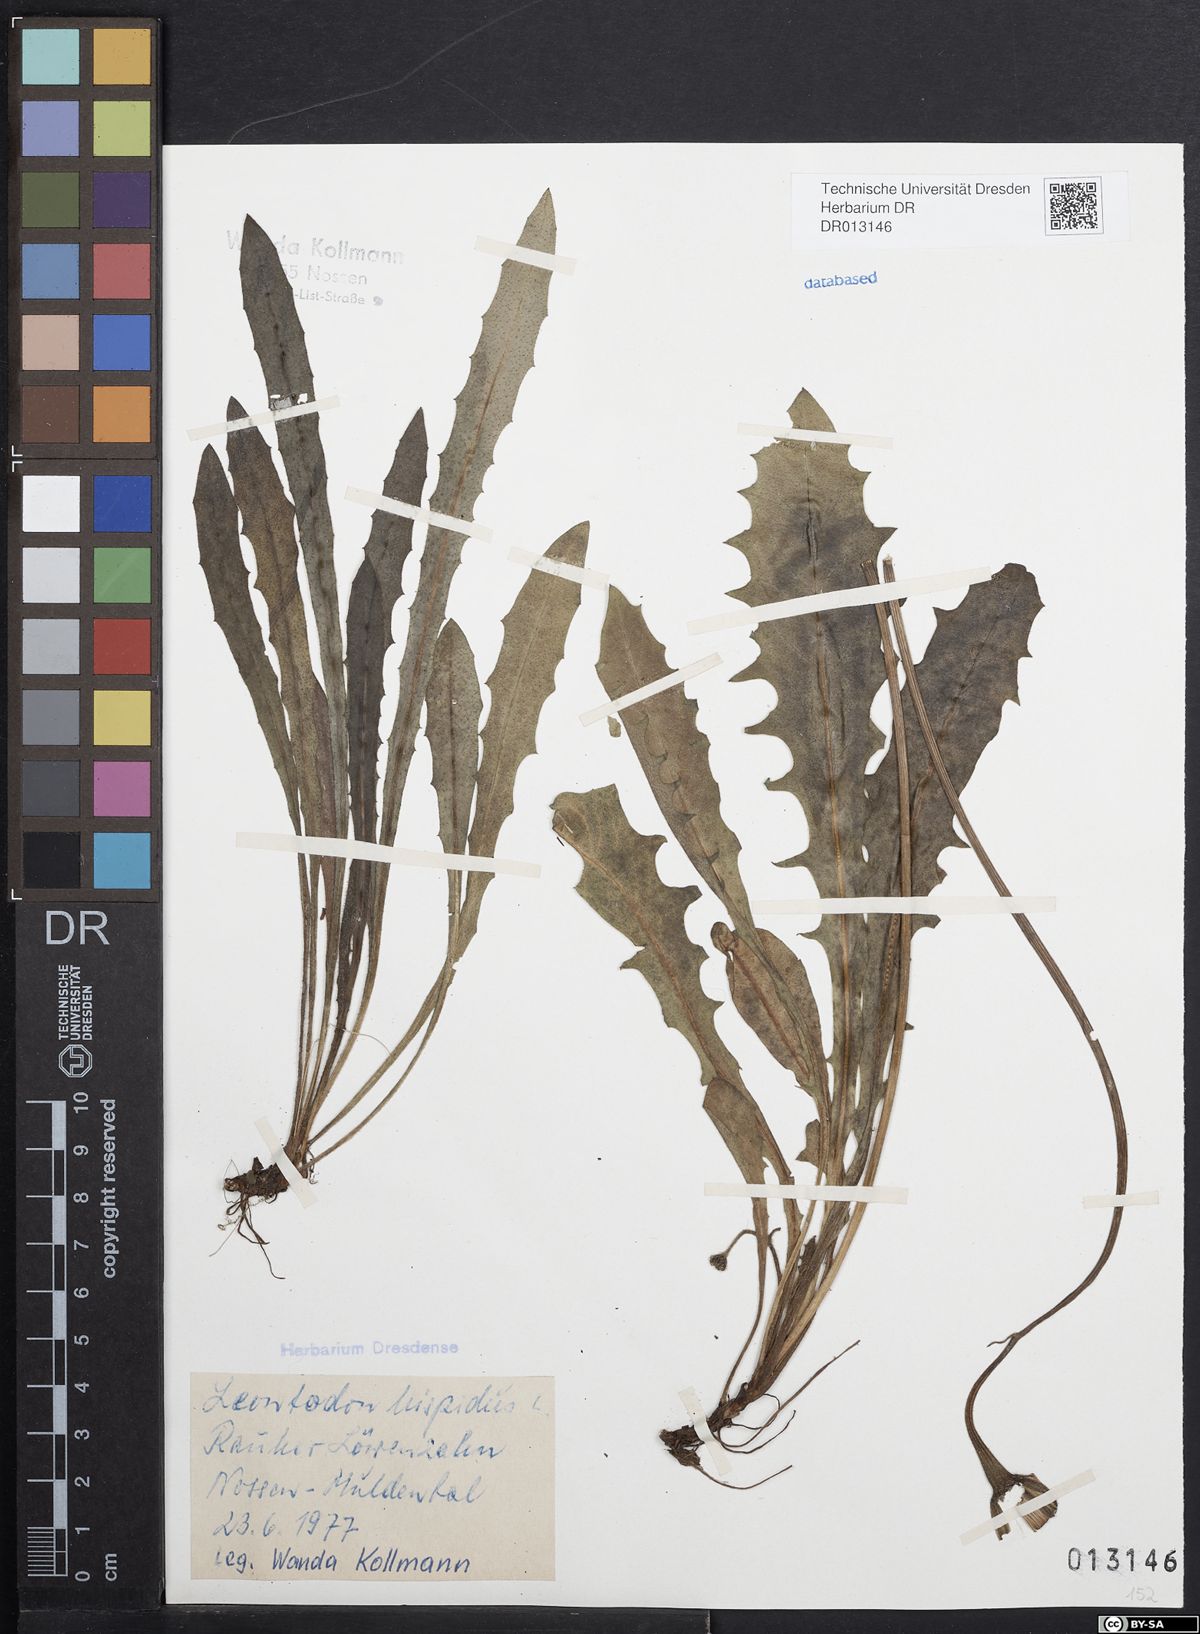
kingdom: Plantae
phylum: Tracheophyta
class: Magnoliopsida
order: Asterales
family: Asteraceae
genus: Leontodon
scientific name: Leontodon hispidus
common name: Rough hawkbit
